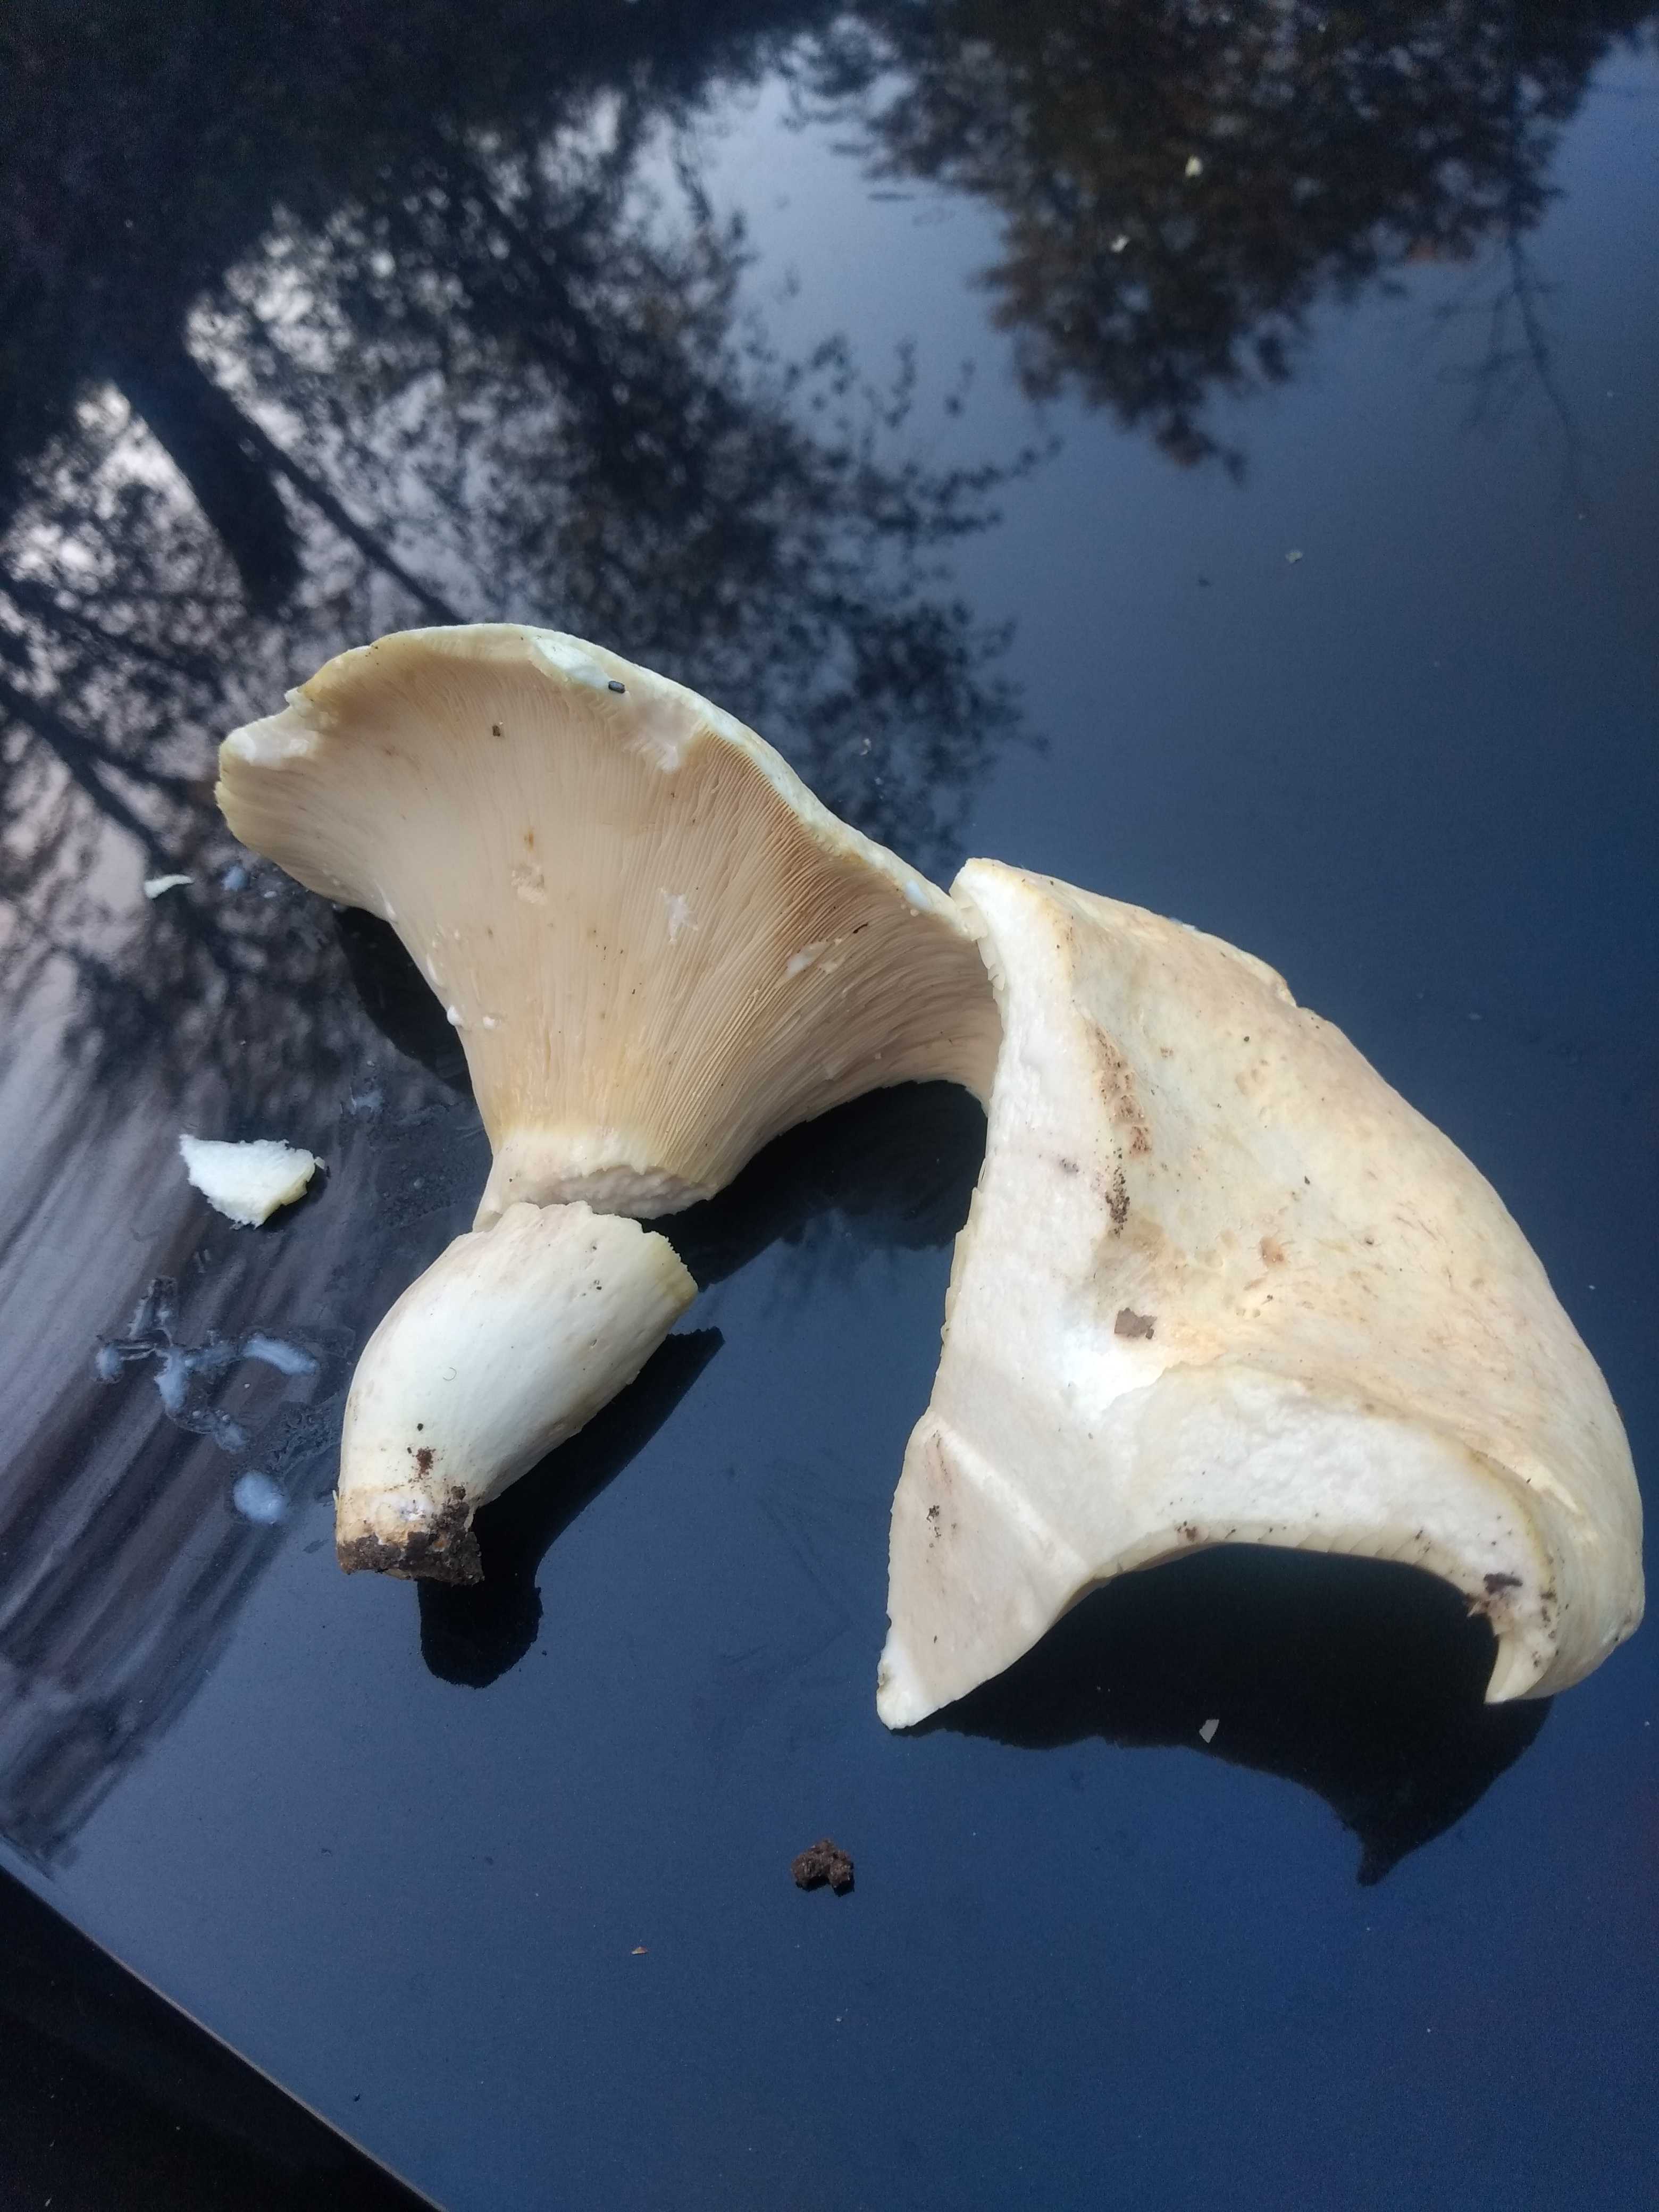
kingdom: Fungi
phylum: Basidiomycota
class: Agaricomycetes
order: Russulales
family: Russulaceae
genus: Lactifluus
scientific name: Lactifluus
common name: mælkehat
